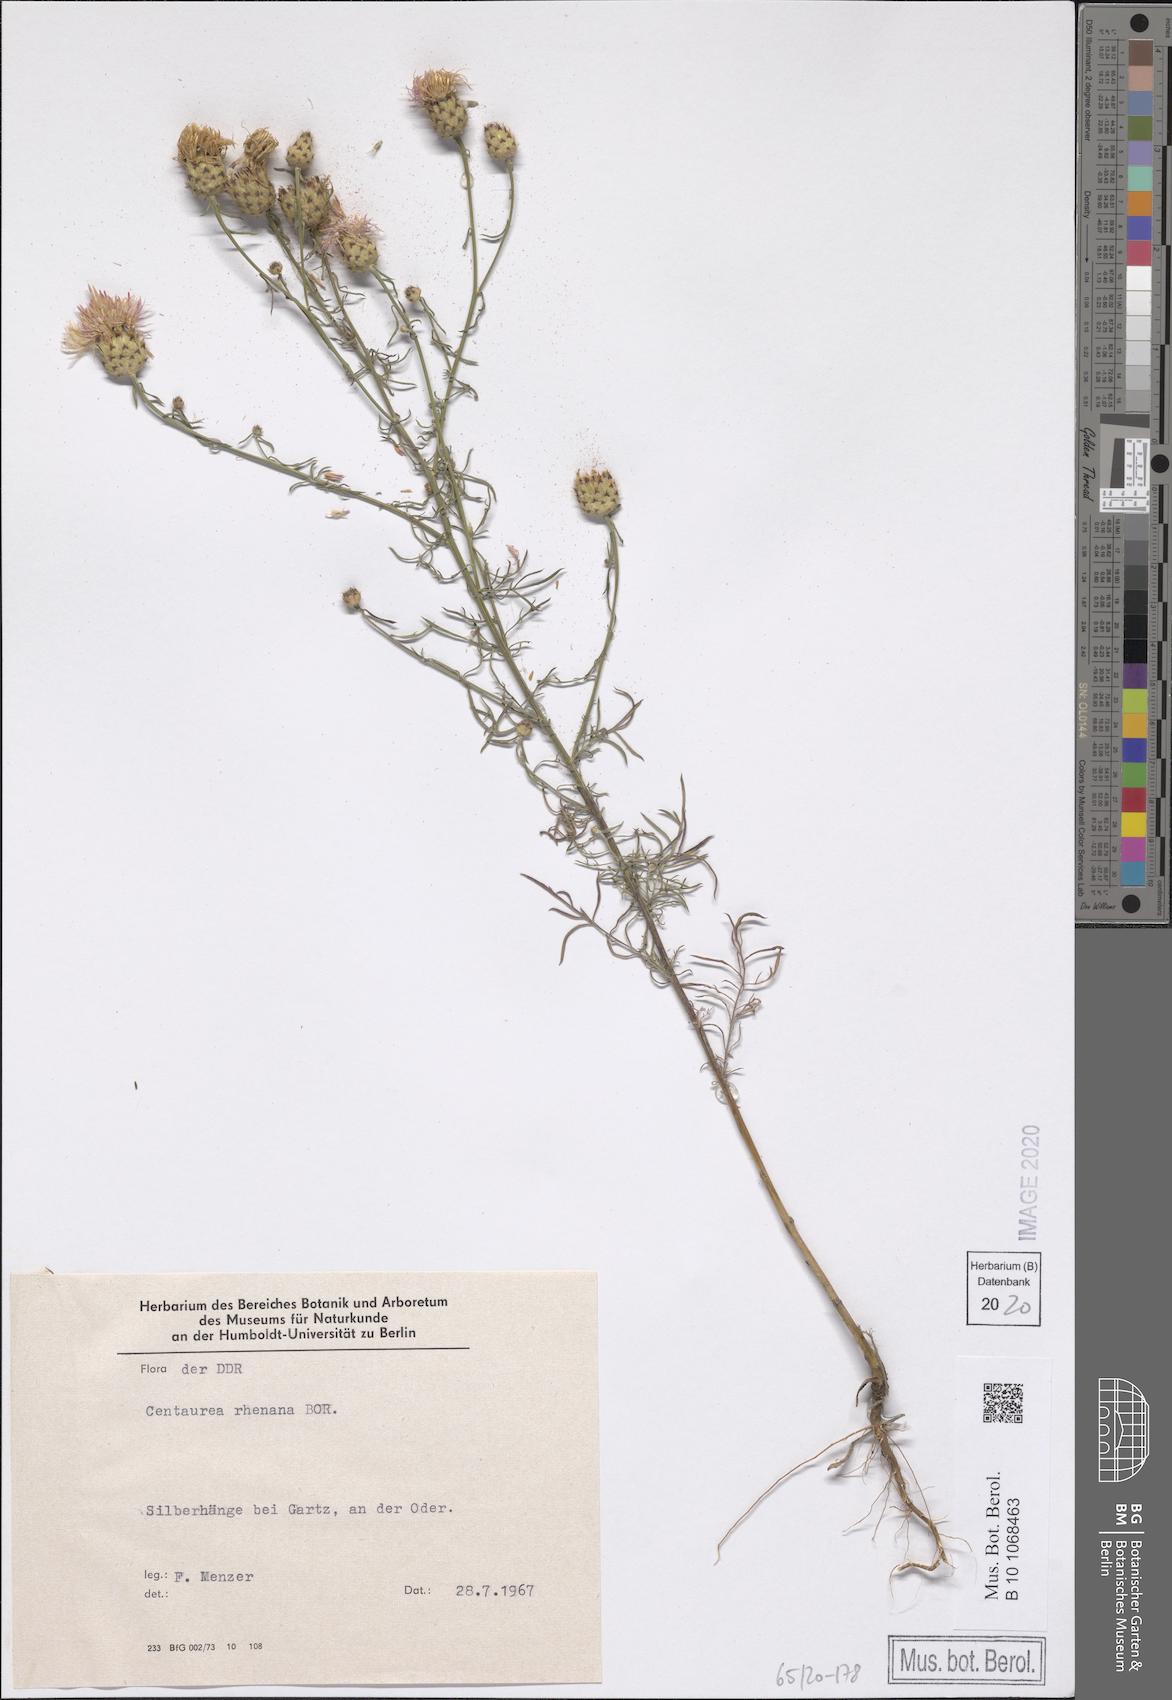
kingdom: Plantae
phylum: Tracheophyta
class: Magnoliopsida
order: Asterales
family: Asteraceae
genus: Centaurea
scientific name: Centaurea stoebe
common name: Spotted knapweed
